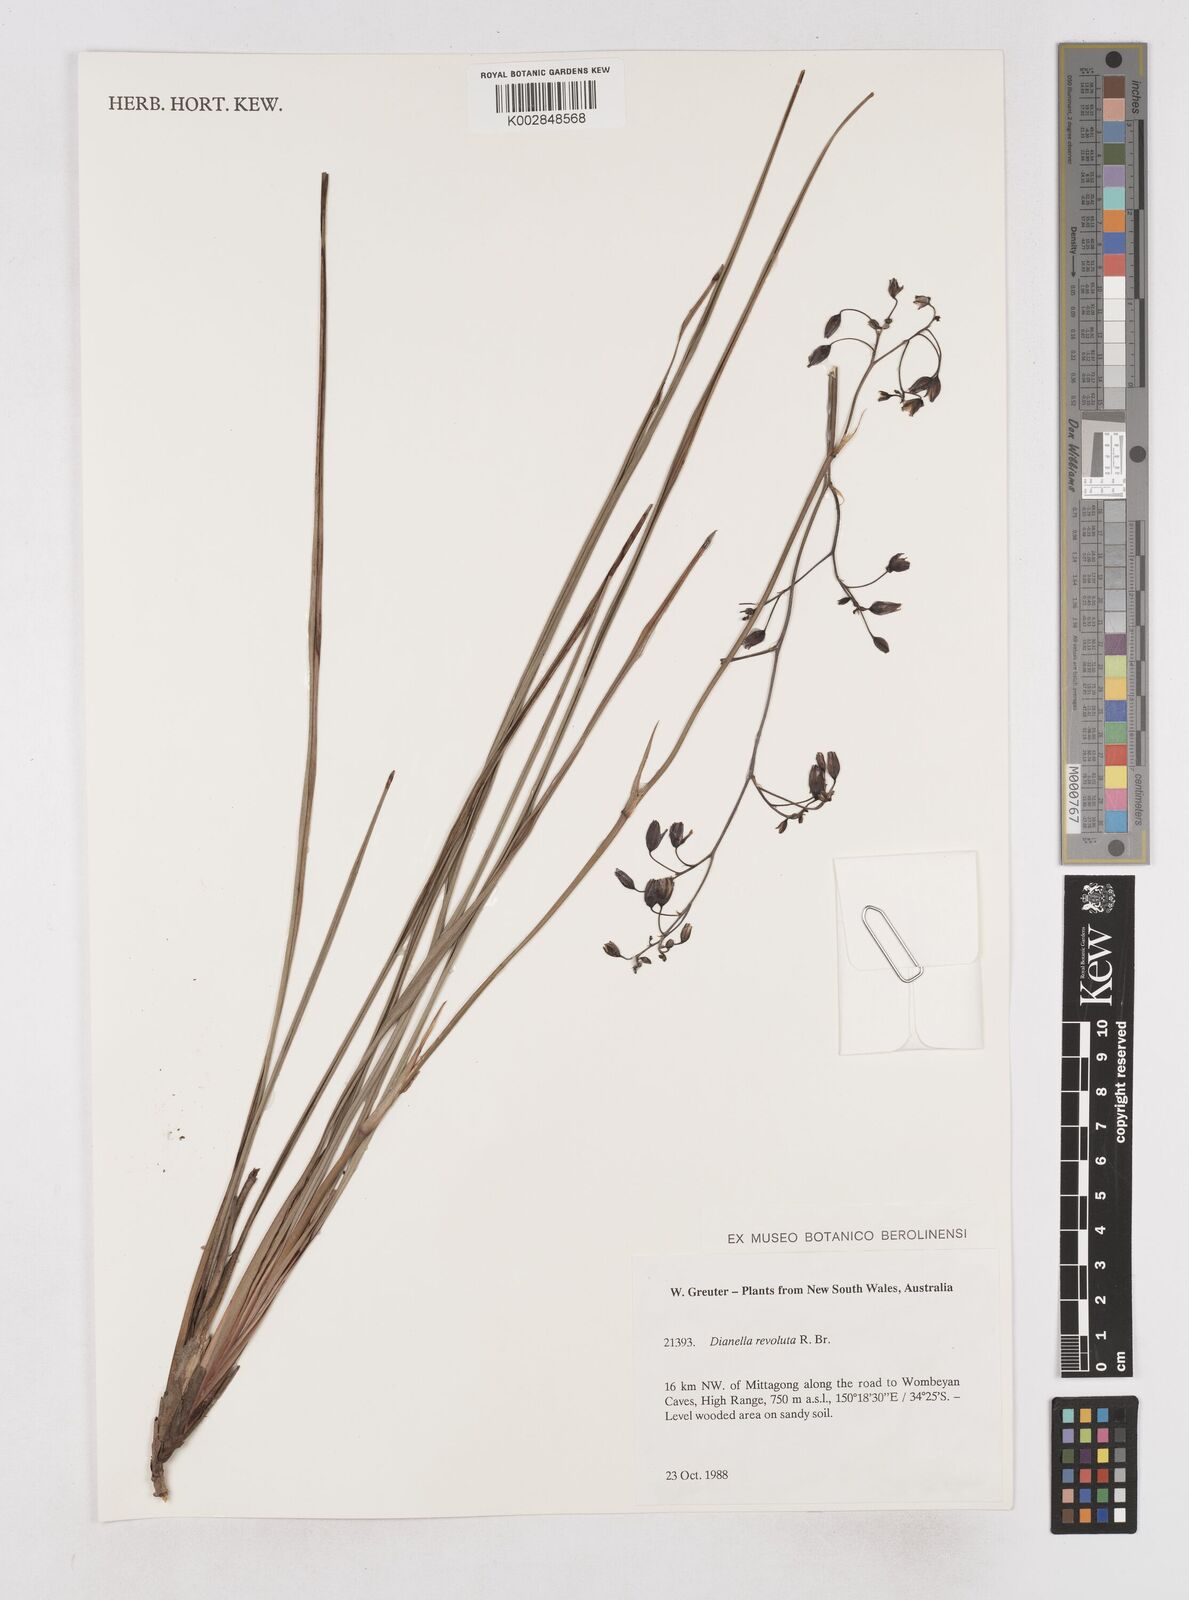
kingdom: Plantae
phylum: Tracheophyta
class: Liliopsida
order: Asparagales
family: Asphodelaceae
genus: Dianella
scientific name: Dianella revoluta
